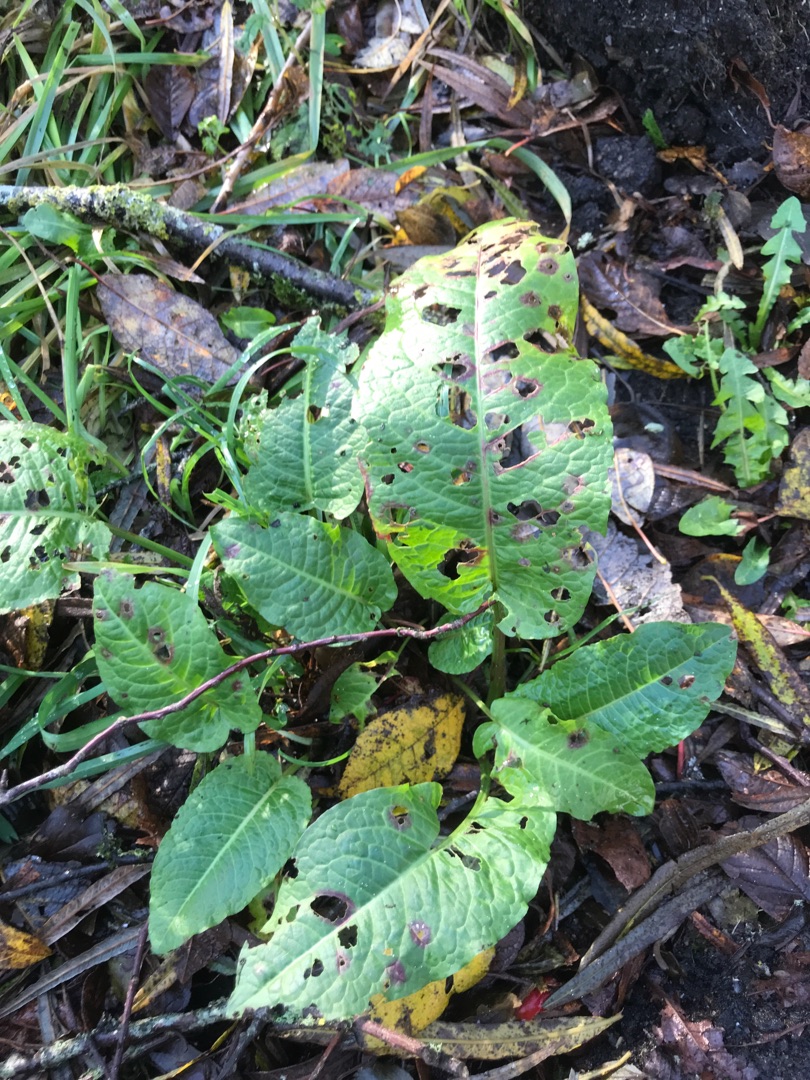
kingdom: Plantae
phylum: Tracheophyta
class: Magnoliopsida
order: Caryophyllales
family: Polygonaceae
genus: Rumex
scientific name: Rumex obtusifolius
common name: Butbladet skræppe
